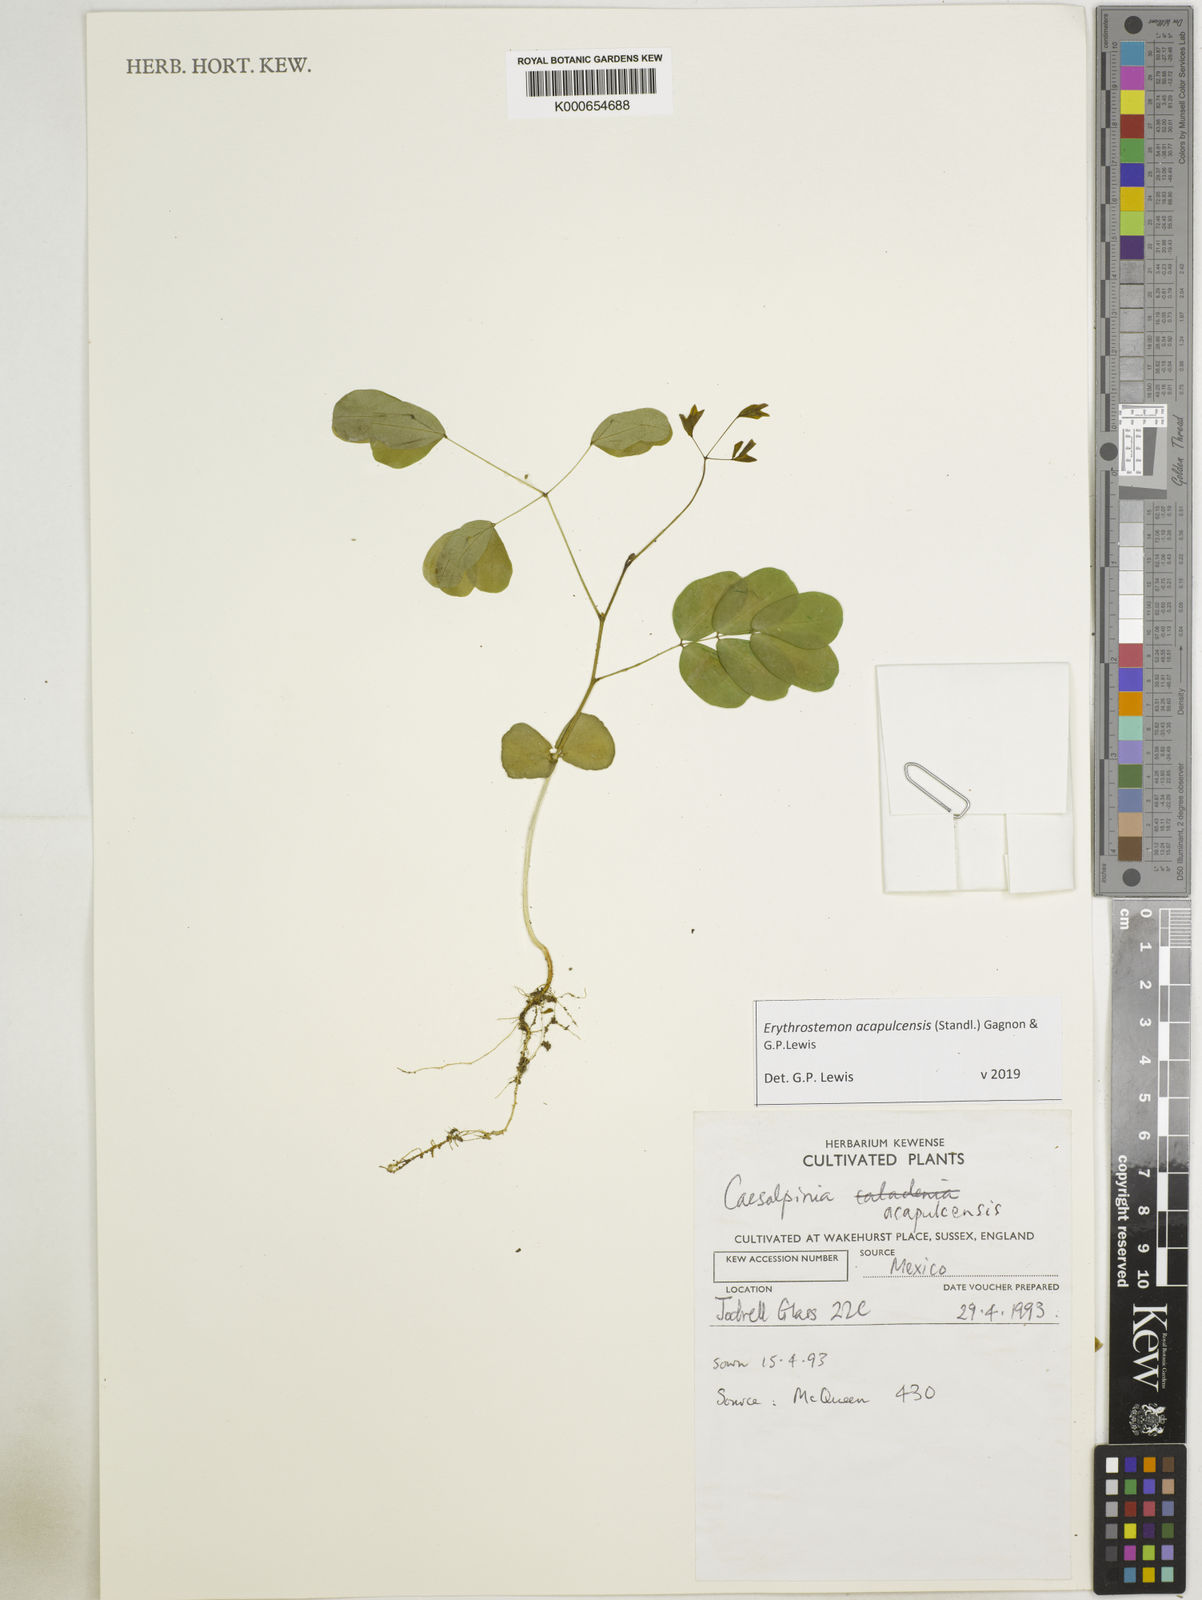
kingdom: Plantae
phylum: Tracheophyta
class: Magnoliopsida
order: Fabales
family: Fabaceae
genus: Erythrostemon
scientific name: Erythrostemon acapulcensis
